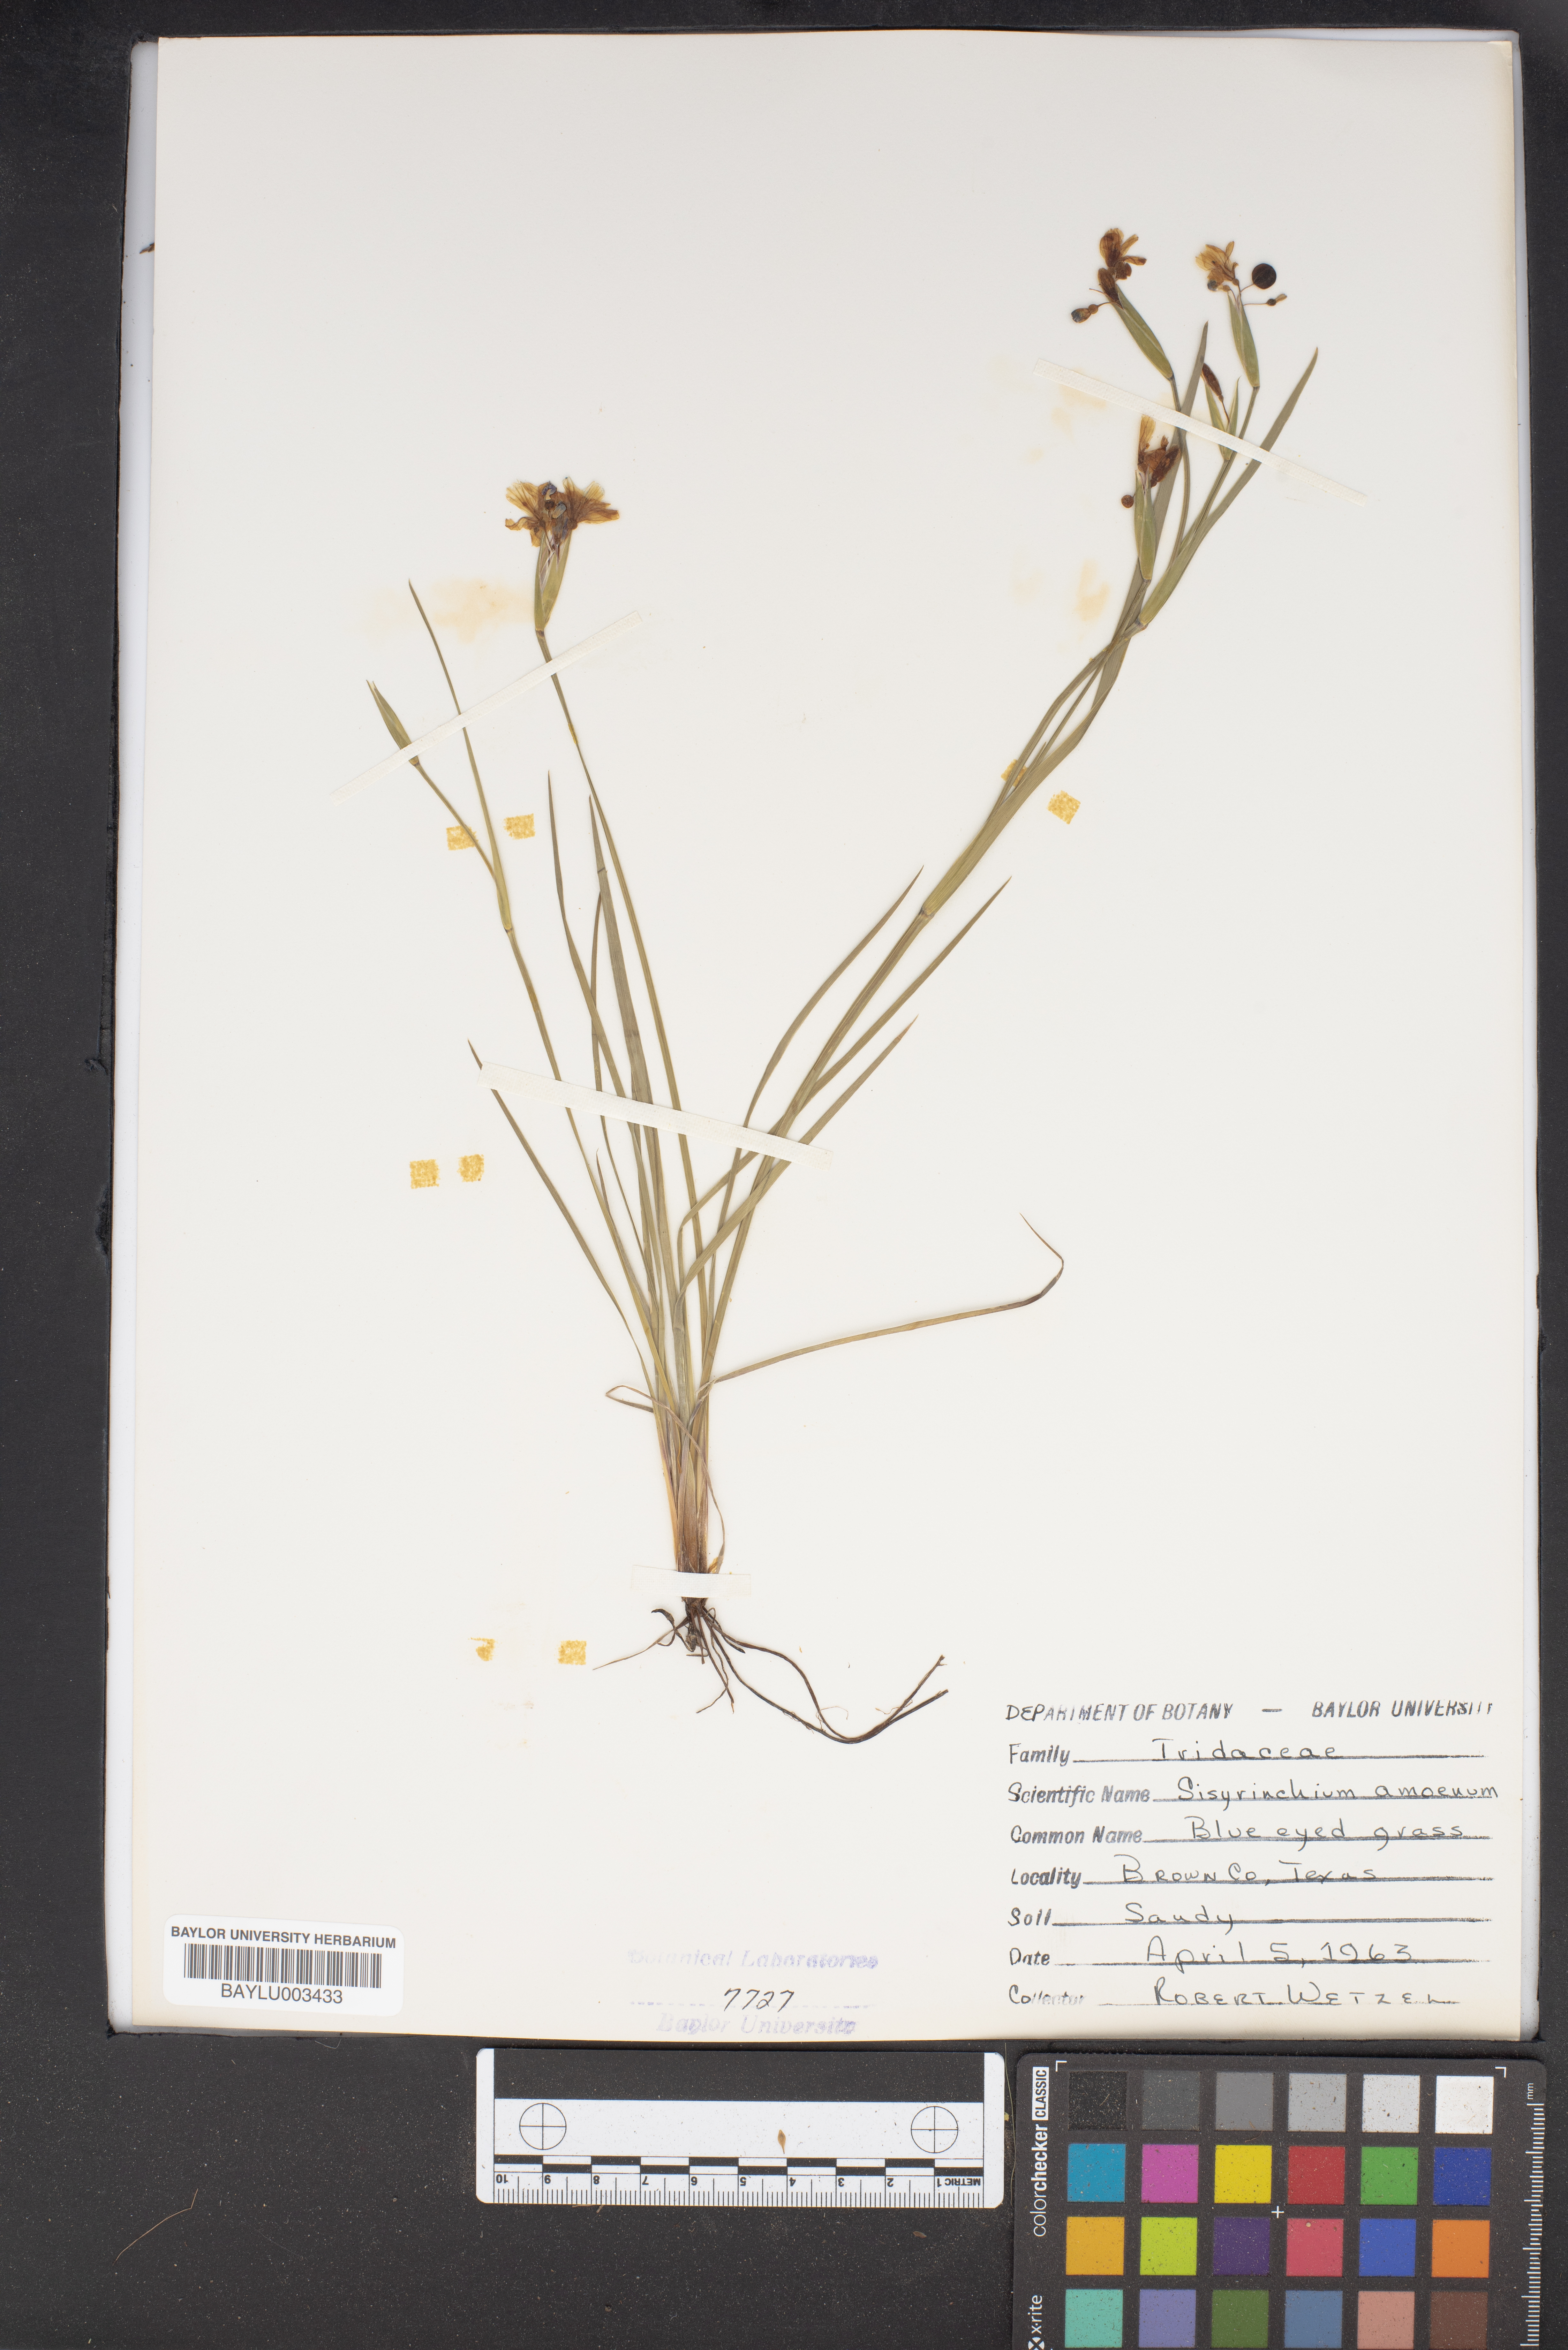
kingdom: Plantae
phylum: Tracheophyta
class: Liliopsida
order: Asparagales
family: Iridaceae
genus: Sisyrinchium
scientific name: Sisyrinchium ensigerum
